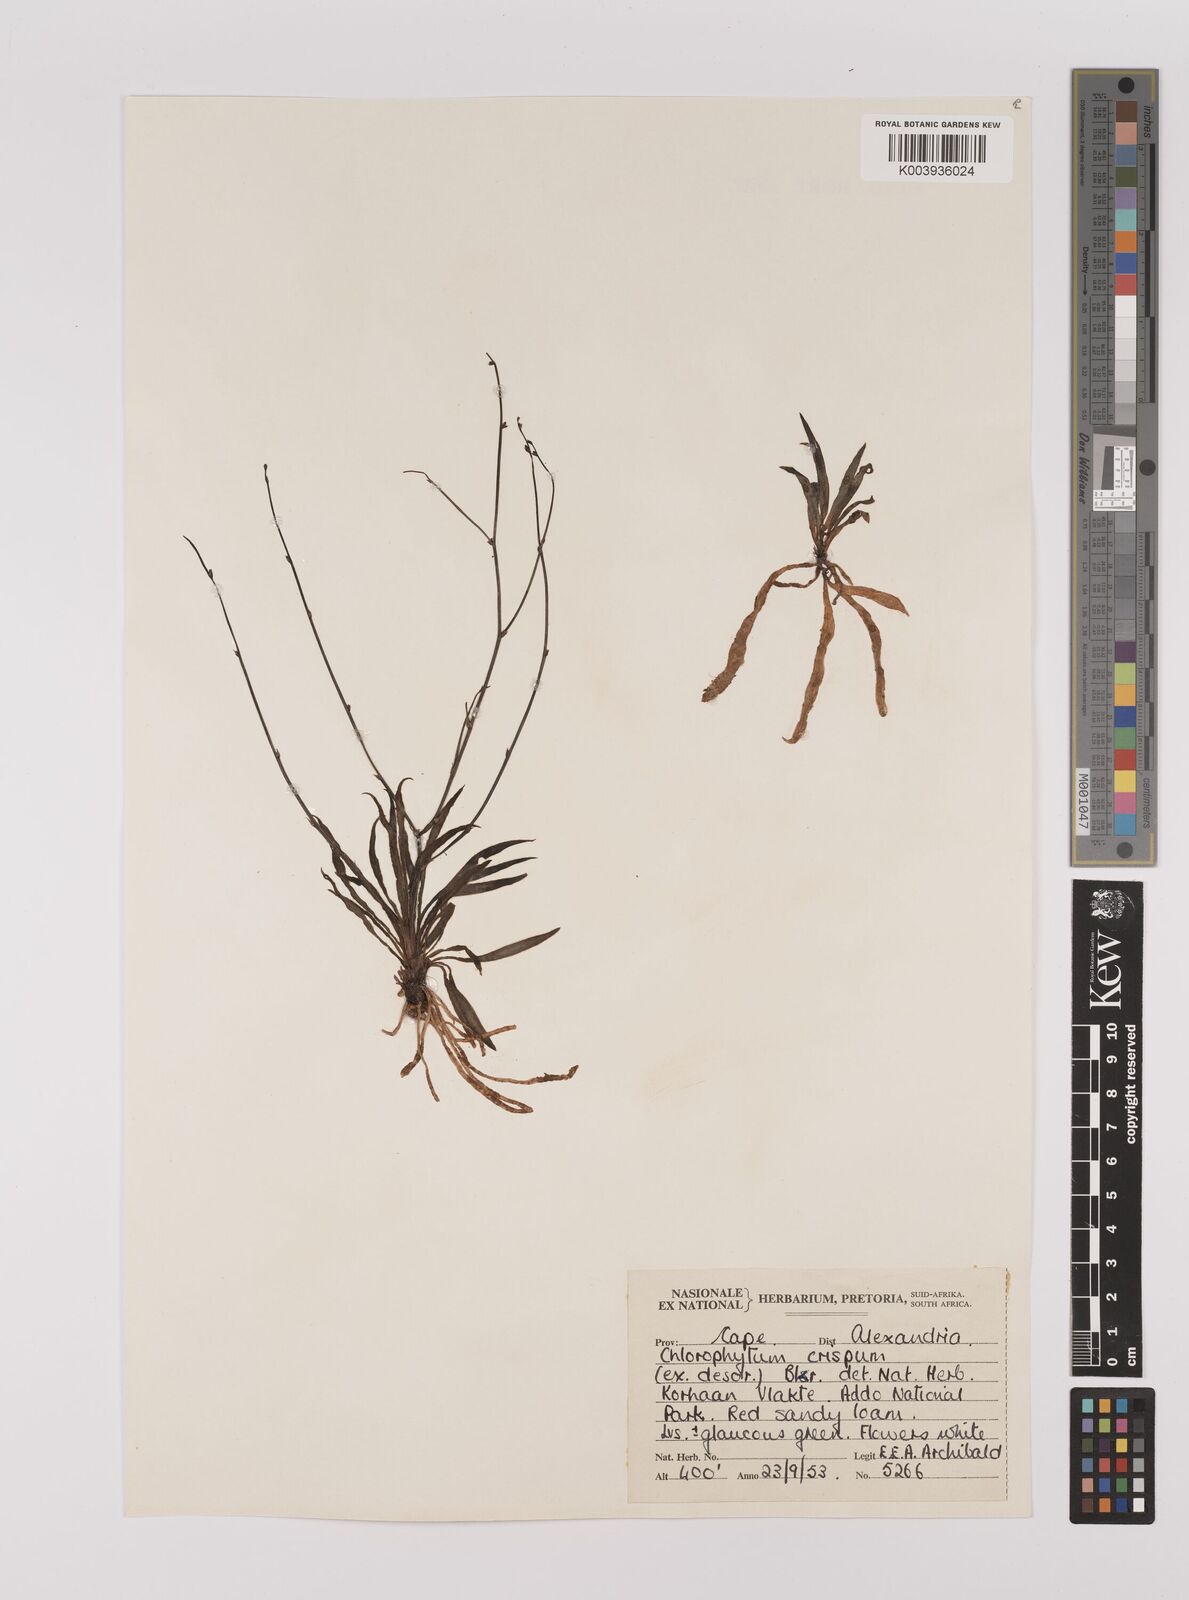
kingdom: Plantae
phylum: Tracheophyta
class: Liliopsida
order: Asparagales
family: Asparagaceae
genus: Chlorophytum
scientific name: Chlorophytum crispum
